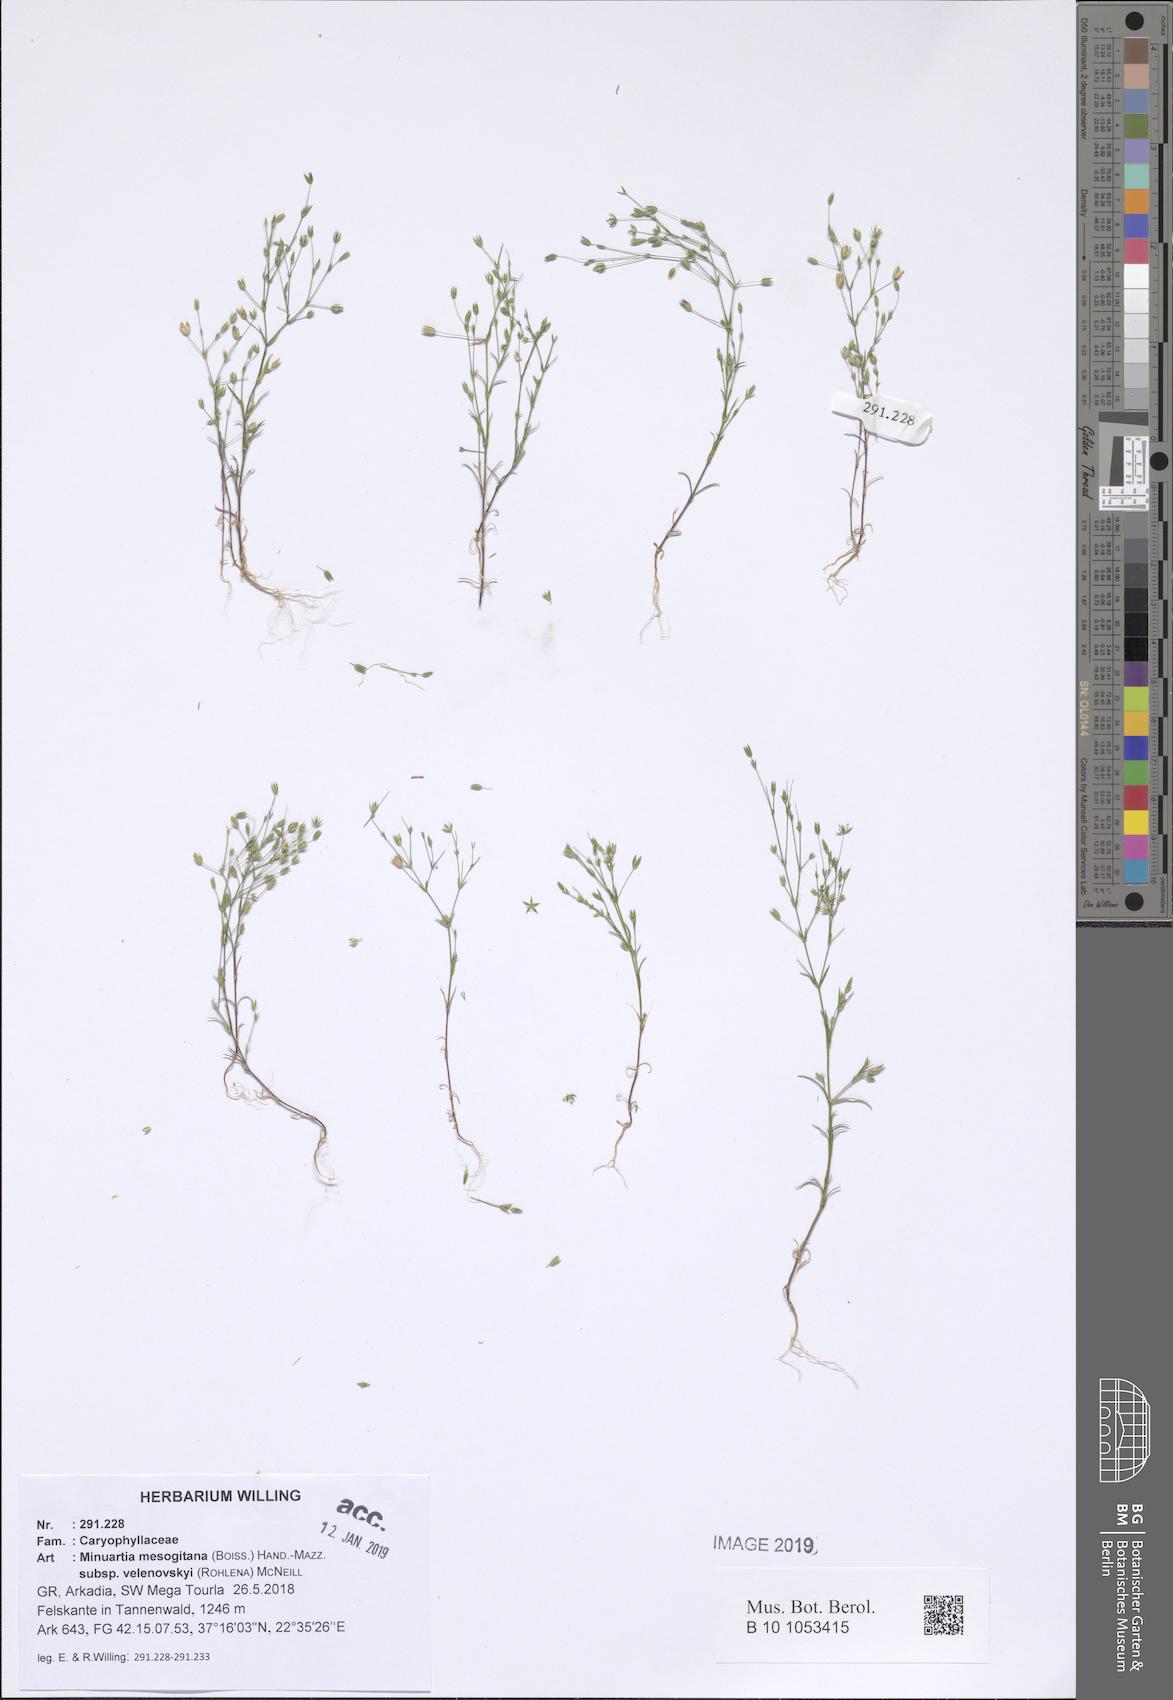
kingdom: Plantae
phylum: Tracheophyta
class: Magnoliopsida
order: Caryophyllales
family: Caryophyllaceae
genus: Sabulina
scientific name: Sabulina velenovskyi
